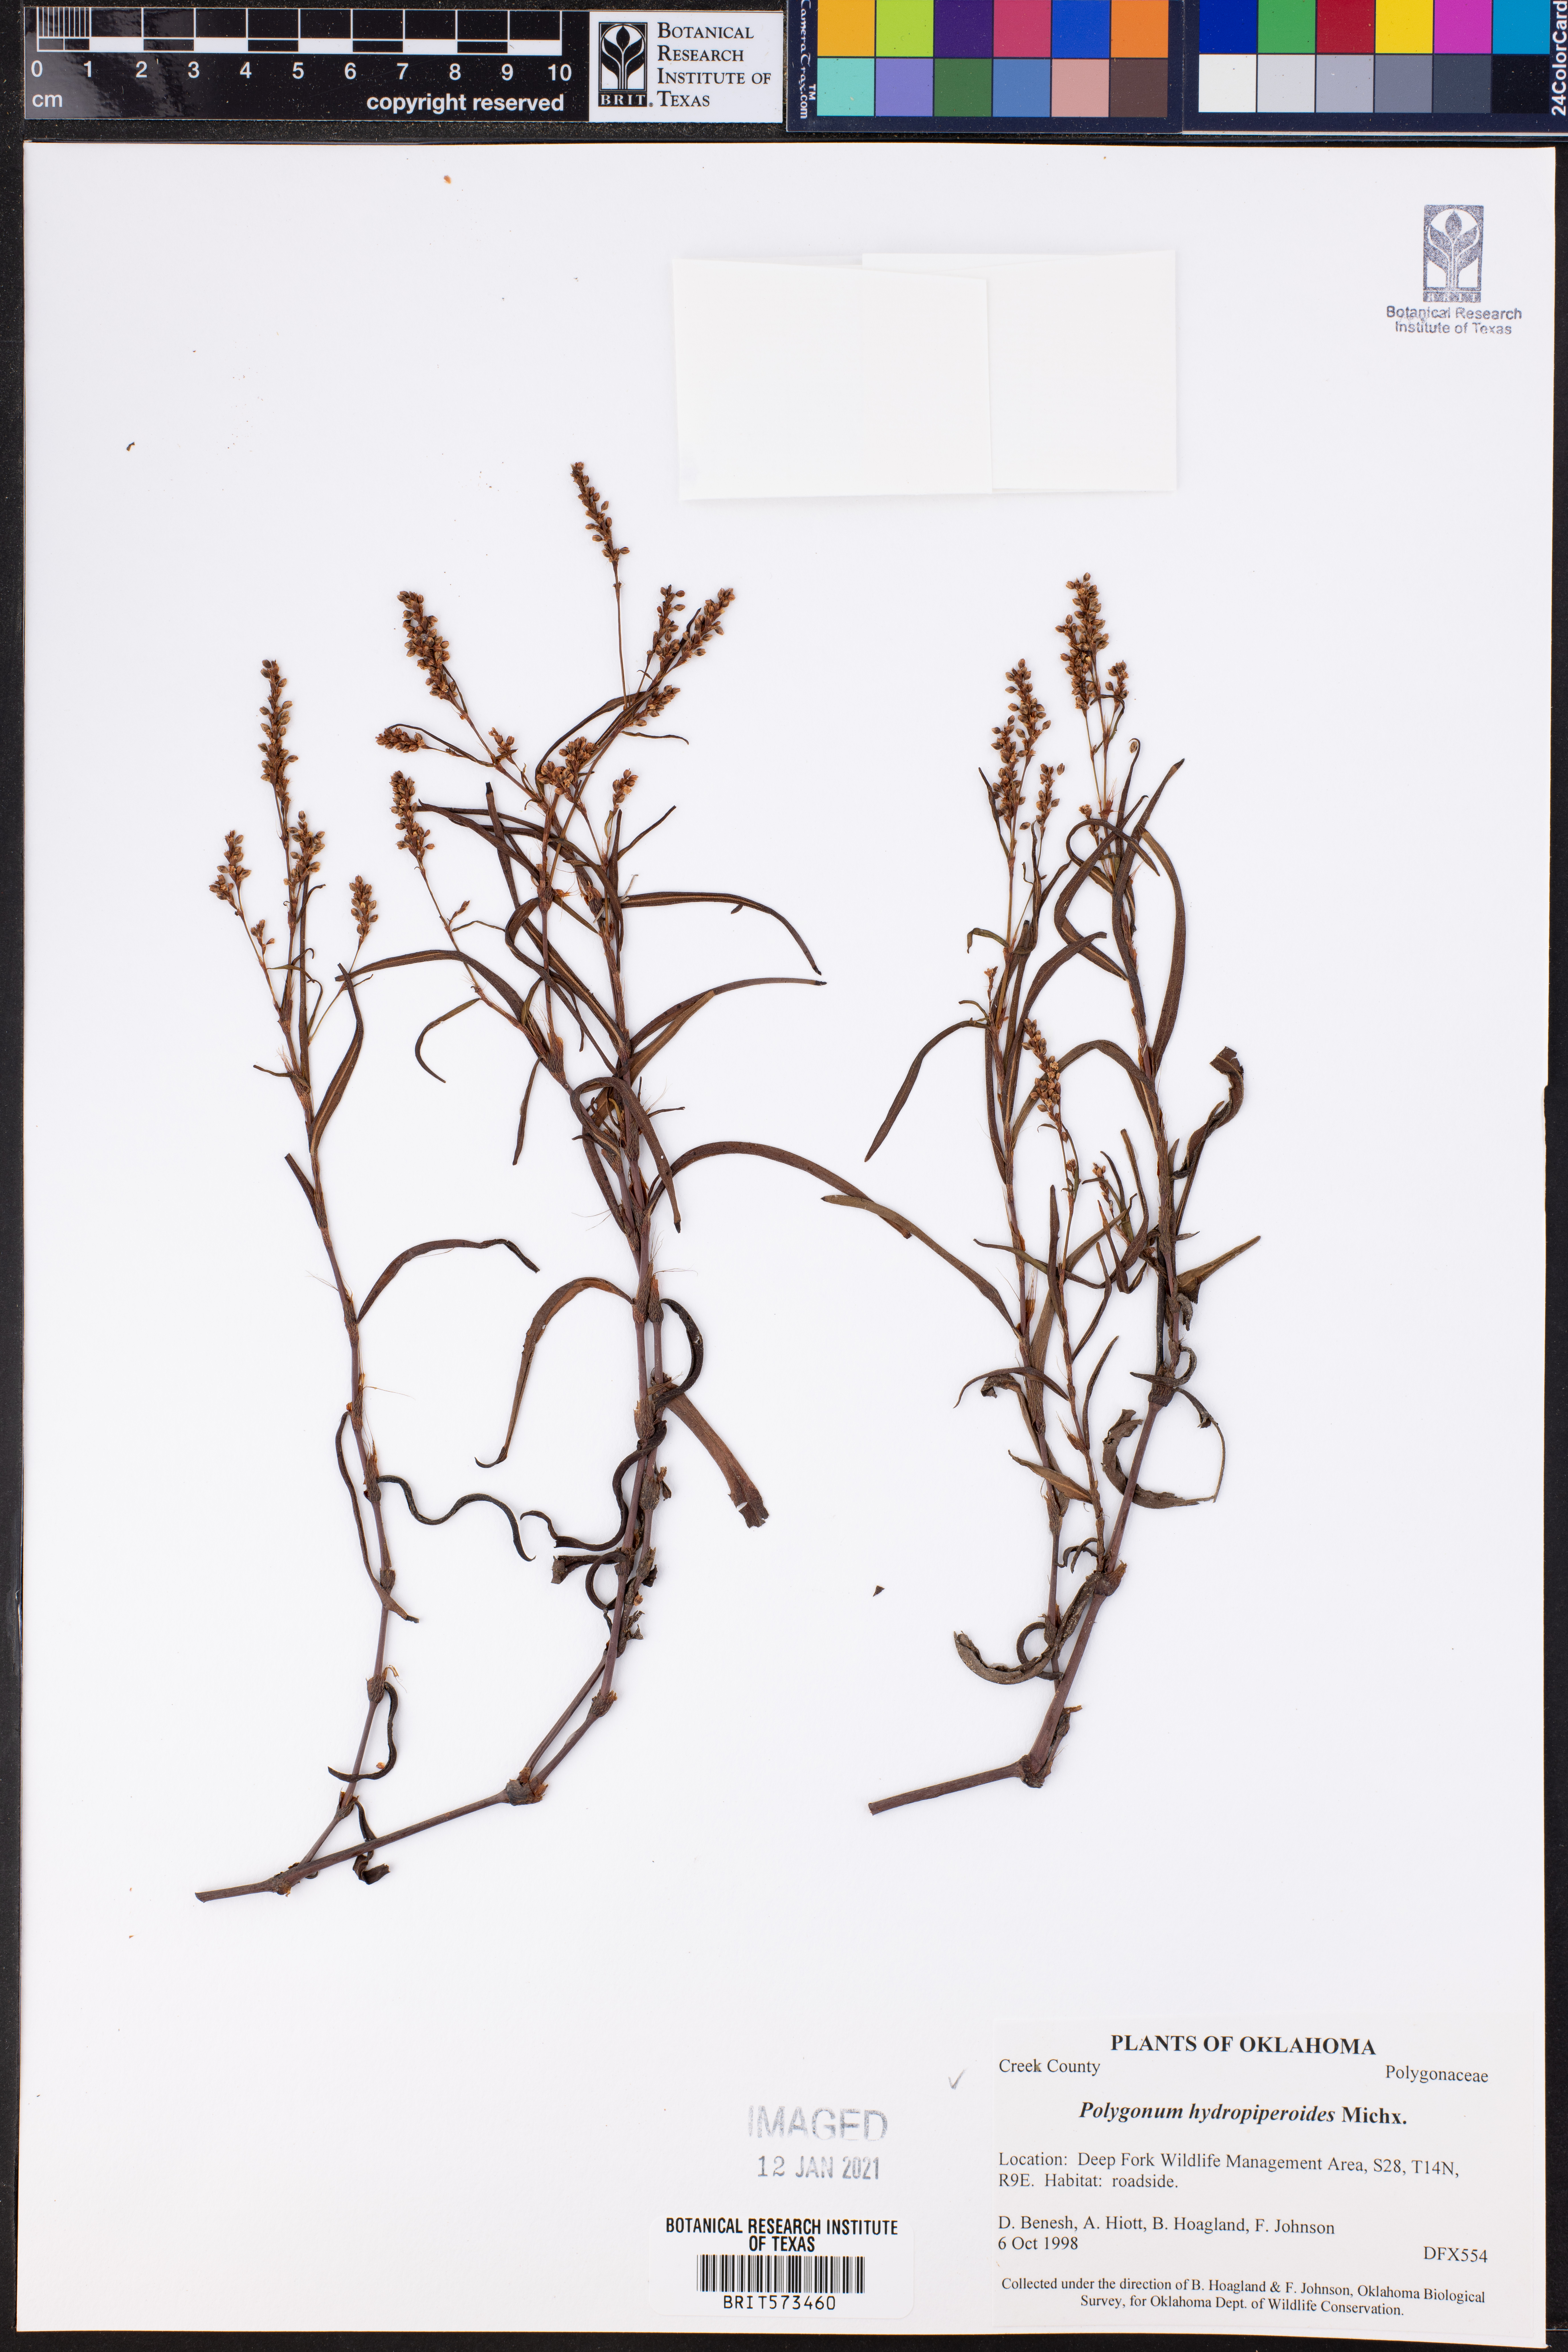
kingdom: Plantae
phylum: Tracheophyta
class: Magnoliopsida
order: Caryophyllales
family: Polygonaceae
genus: Persicaria
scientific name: Persicaria hydropiperoides
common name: Swamp smartweed
